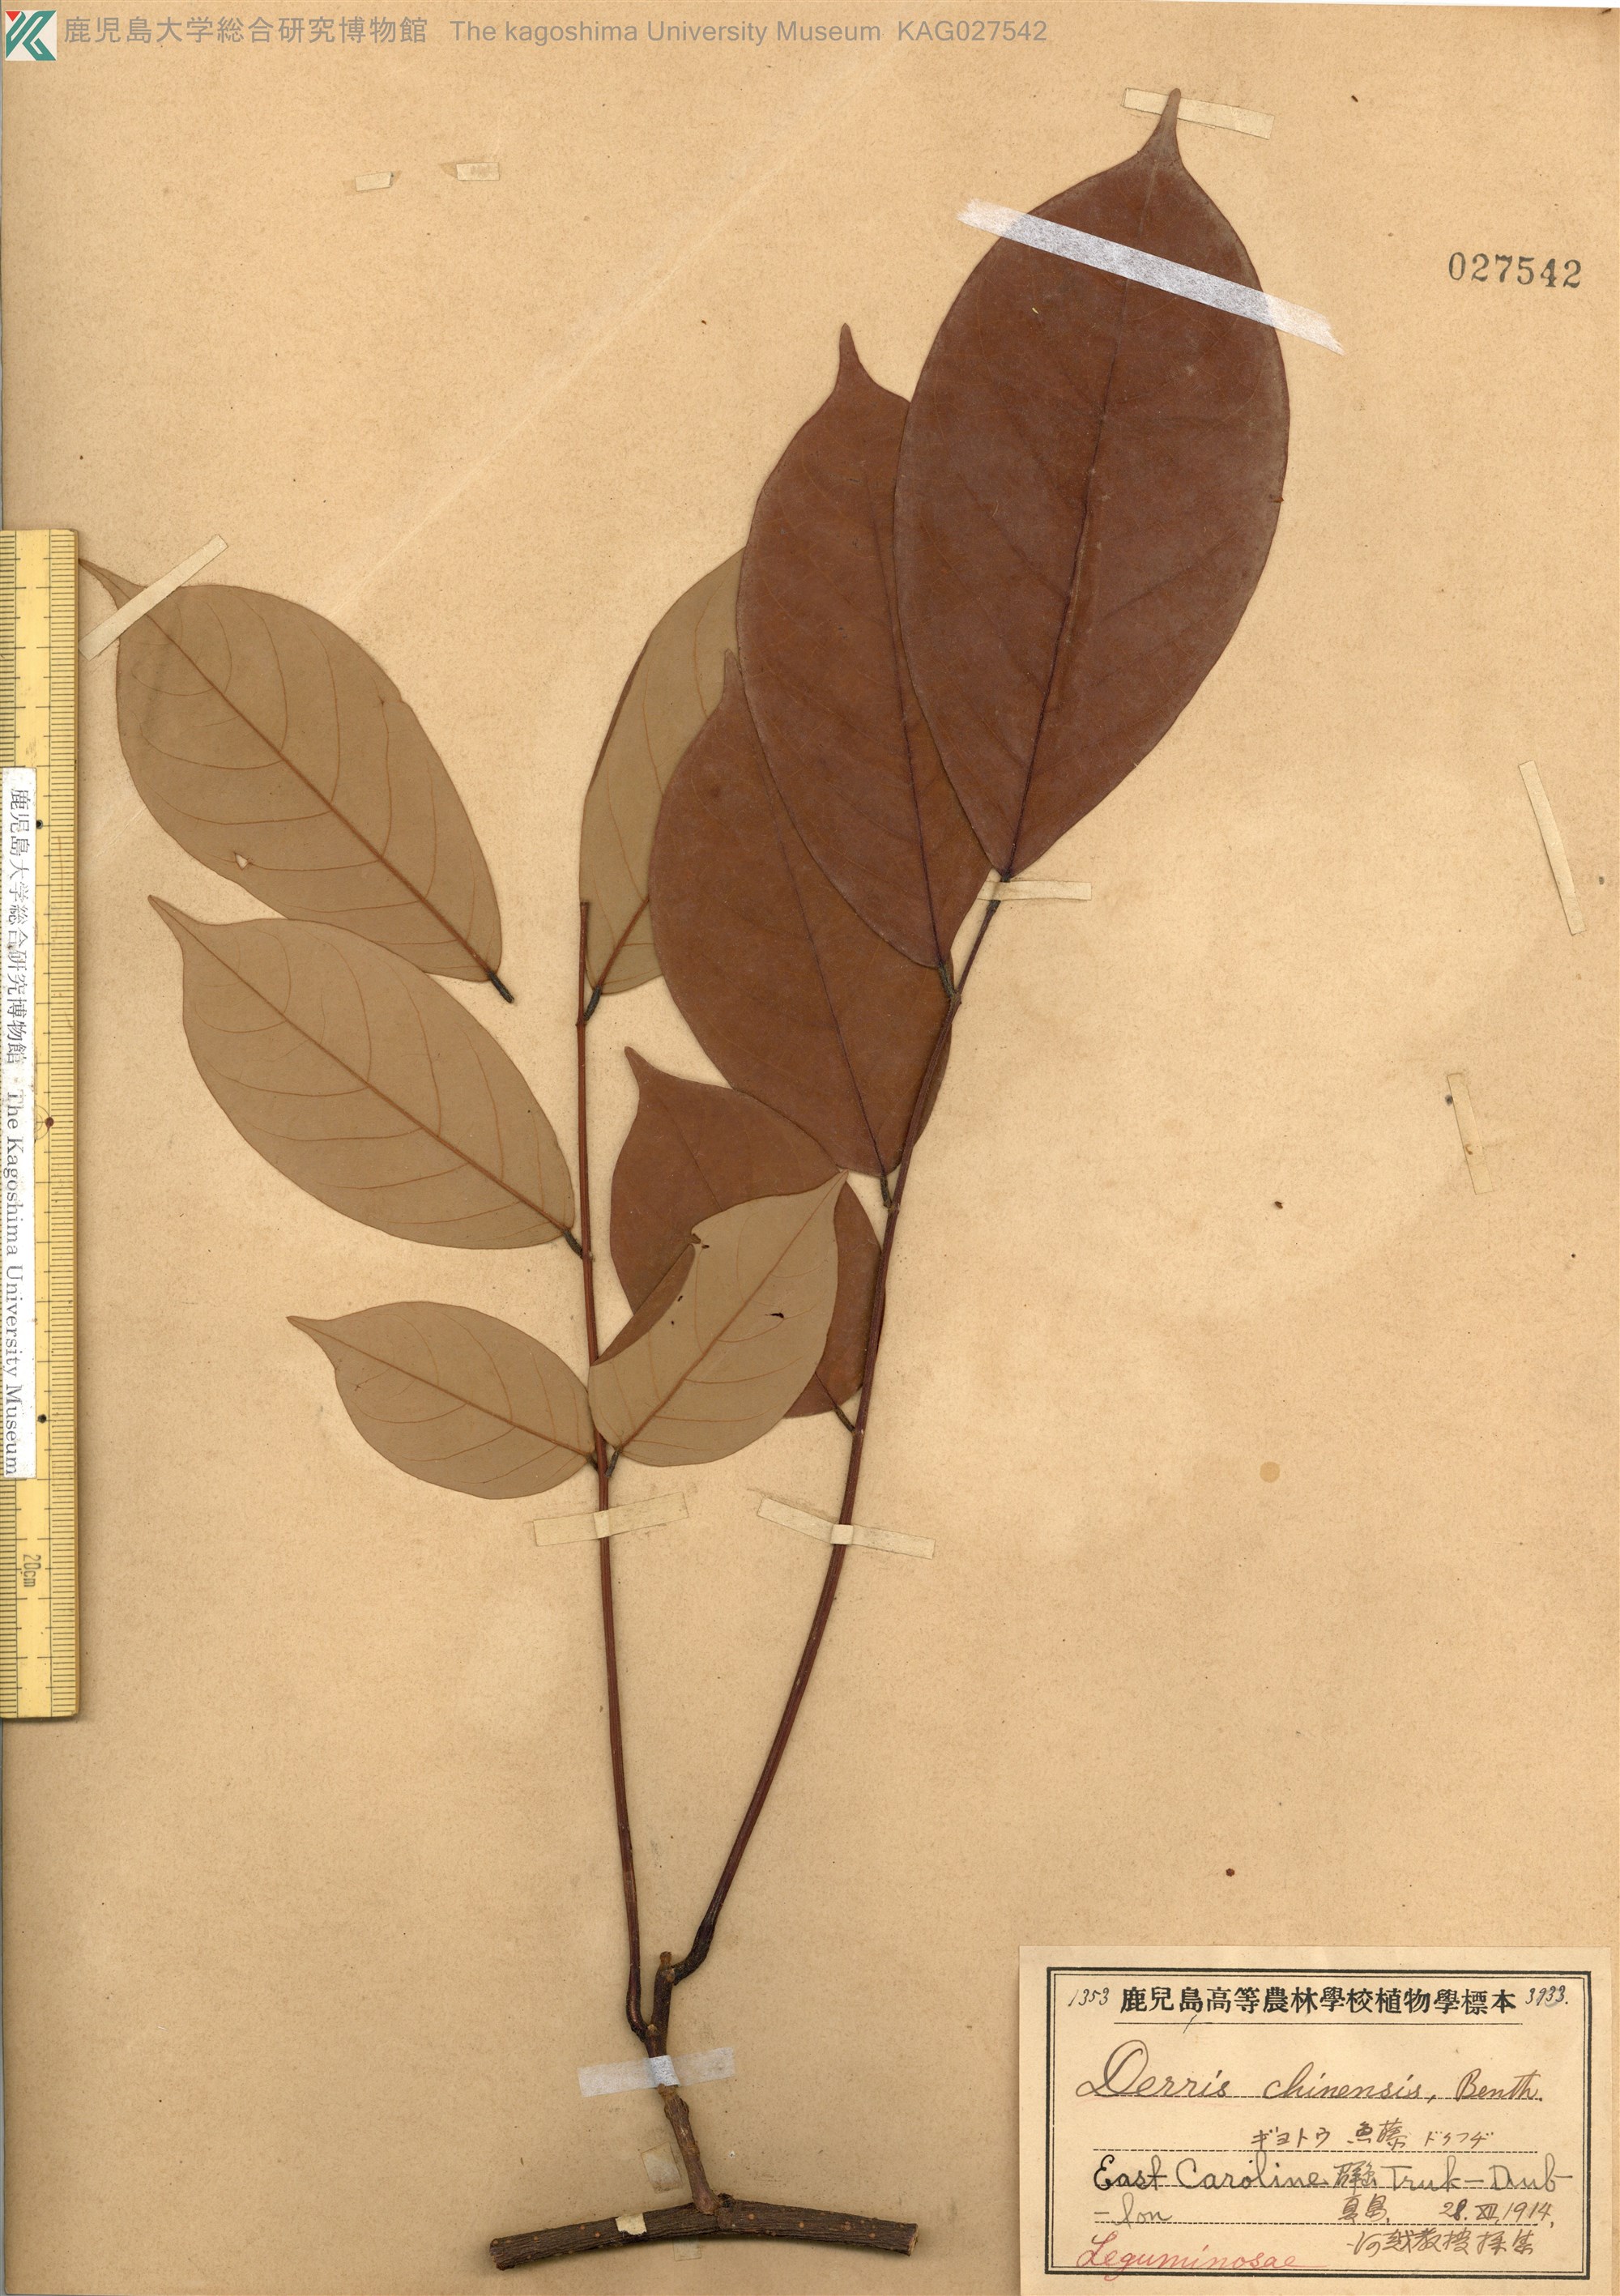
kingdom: Plantae
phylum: Tracheophyta
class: Magnoliopsida
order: Fabales
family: Fabaceae
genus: Derris
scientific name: Derris elliptica
